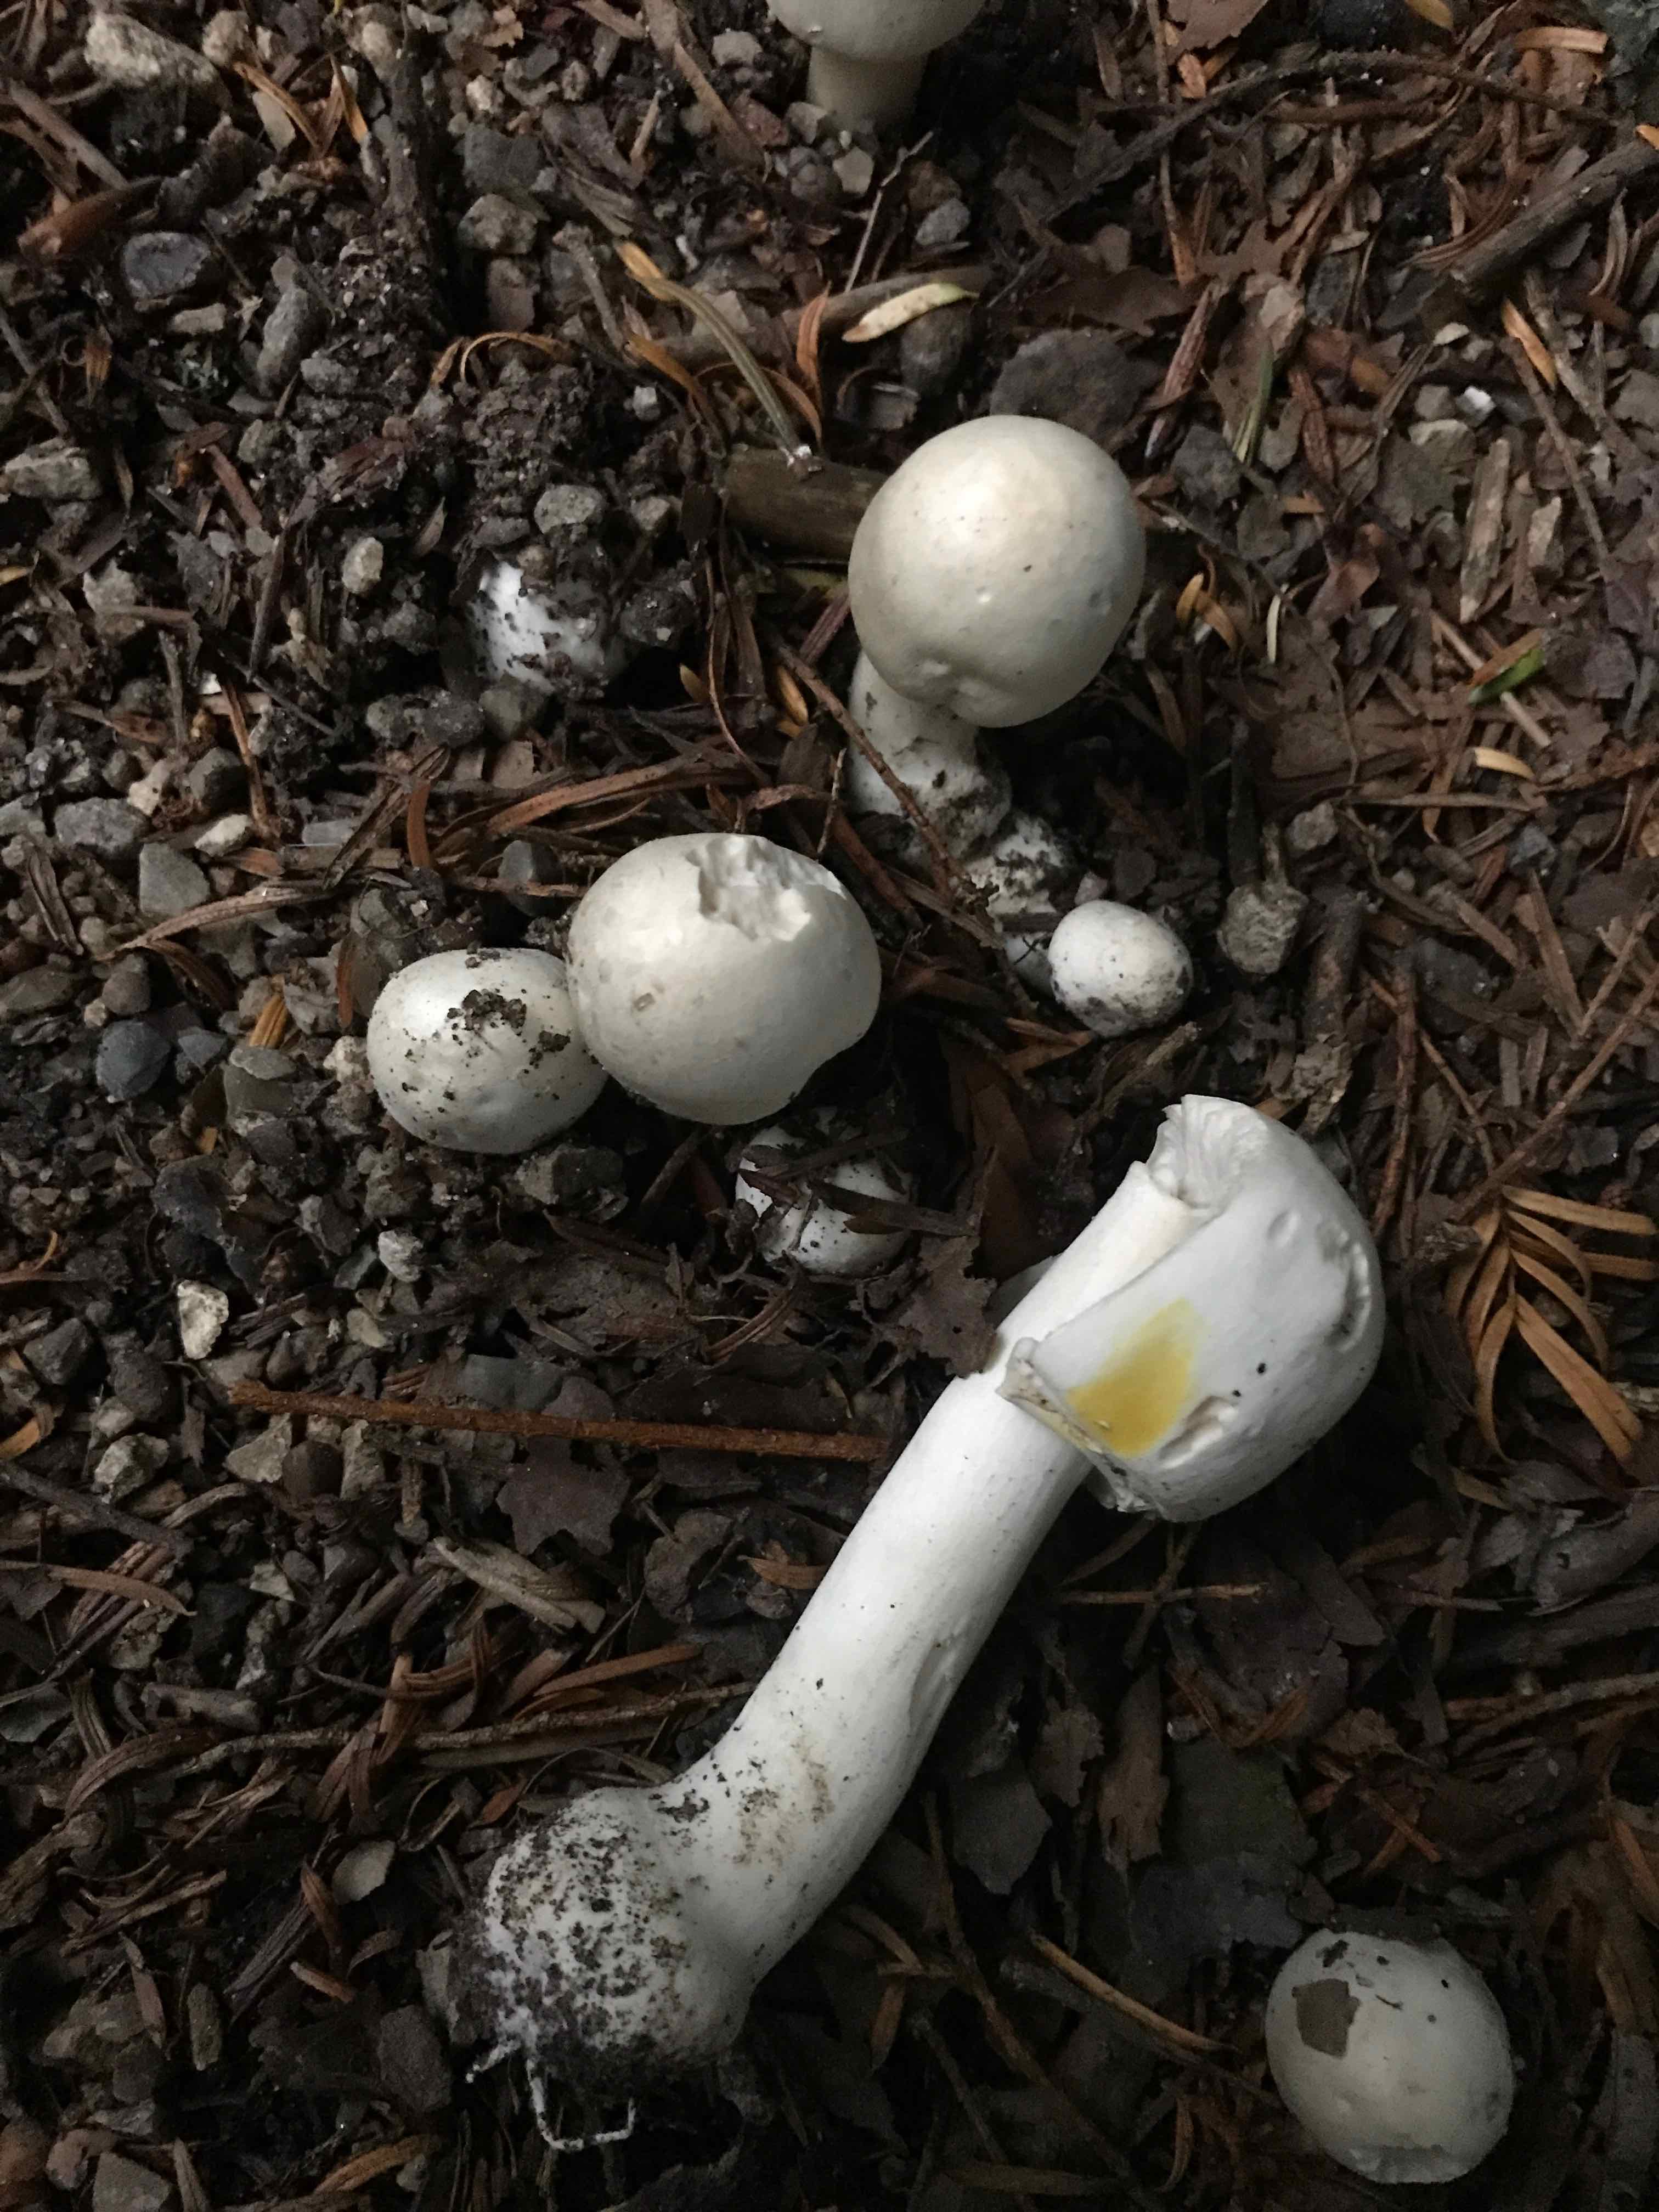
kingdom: Fungi
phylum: Basidiomycota
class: Agaricomycetes
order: Agaricales
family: Agaricaceae
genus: Agaricus
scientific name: Agaricus xanthodermus
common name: karbol-champignon
